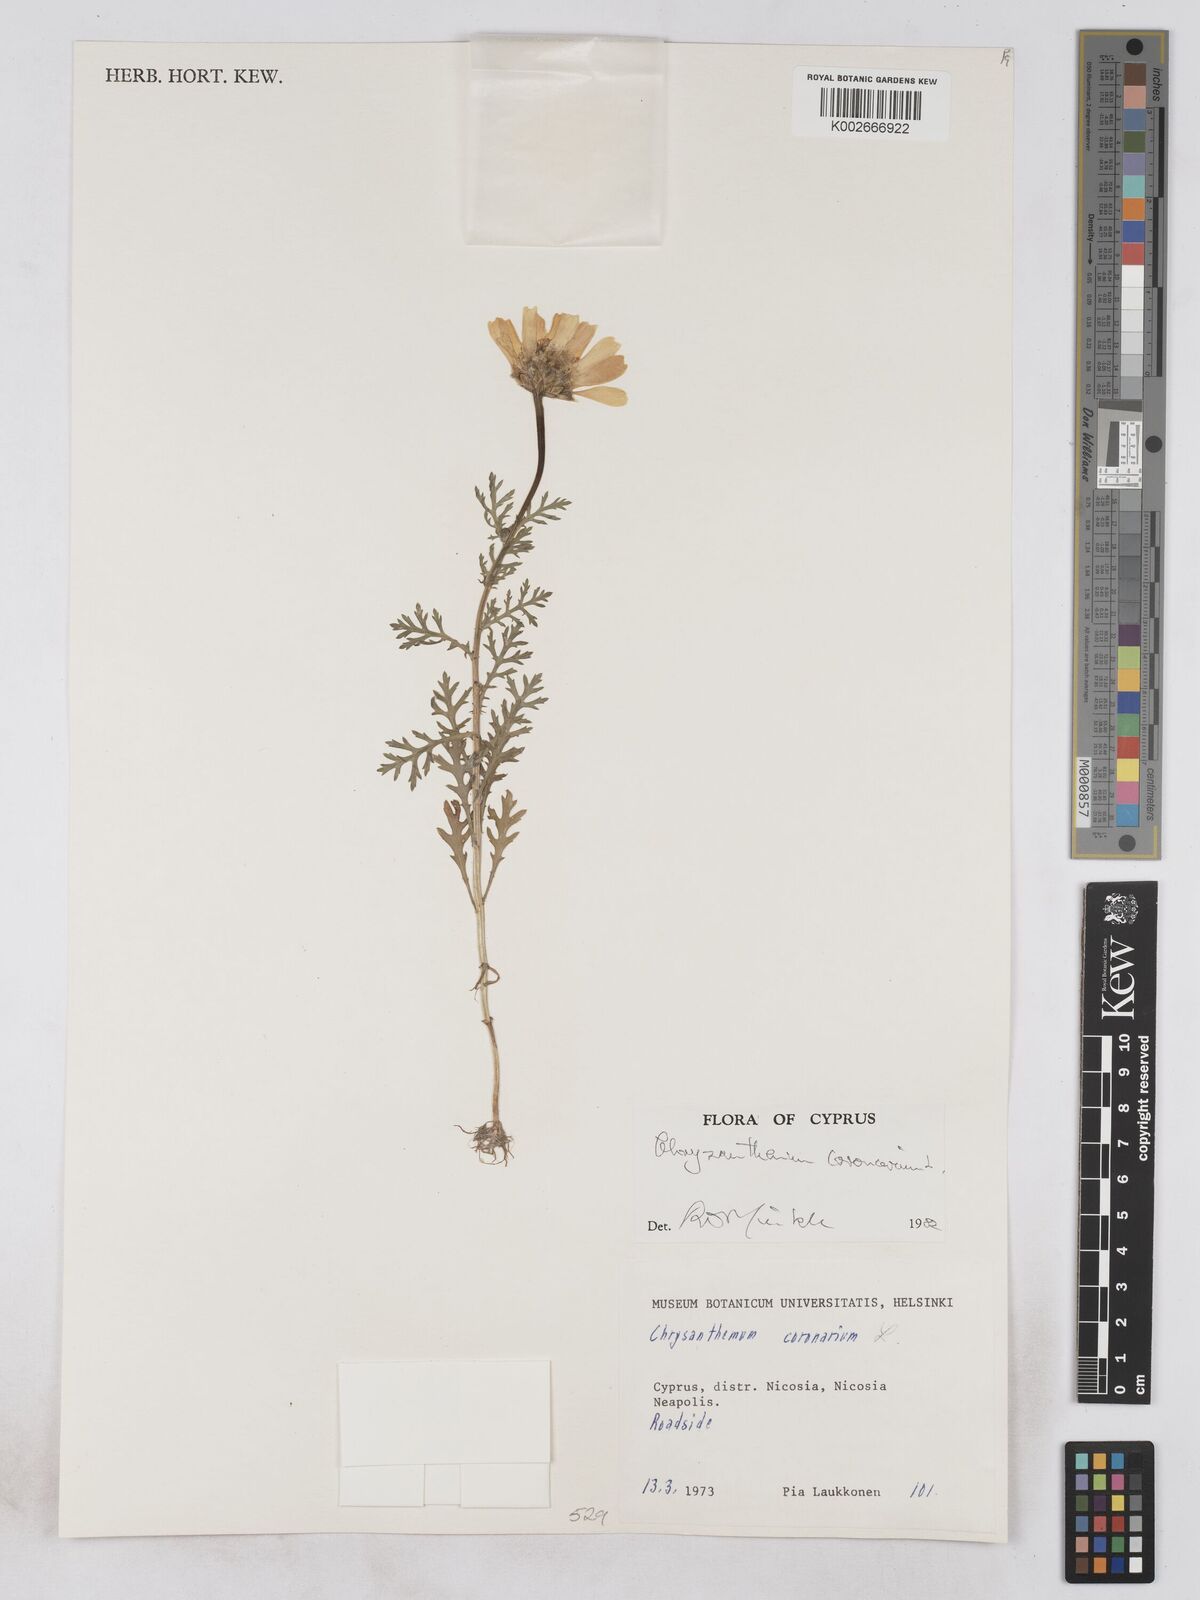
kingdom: Plantae
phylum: Tracheophyta
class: Magnoliopsida
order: Asterales
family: Asteraceae
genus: Glebionis
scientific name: Glebionis coronaria
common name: Crowndaisy
